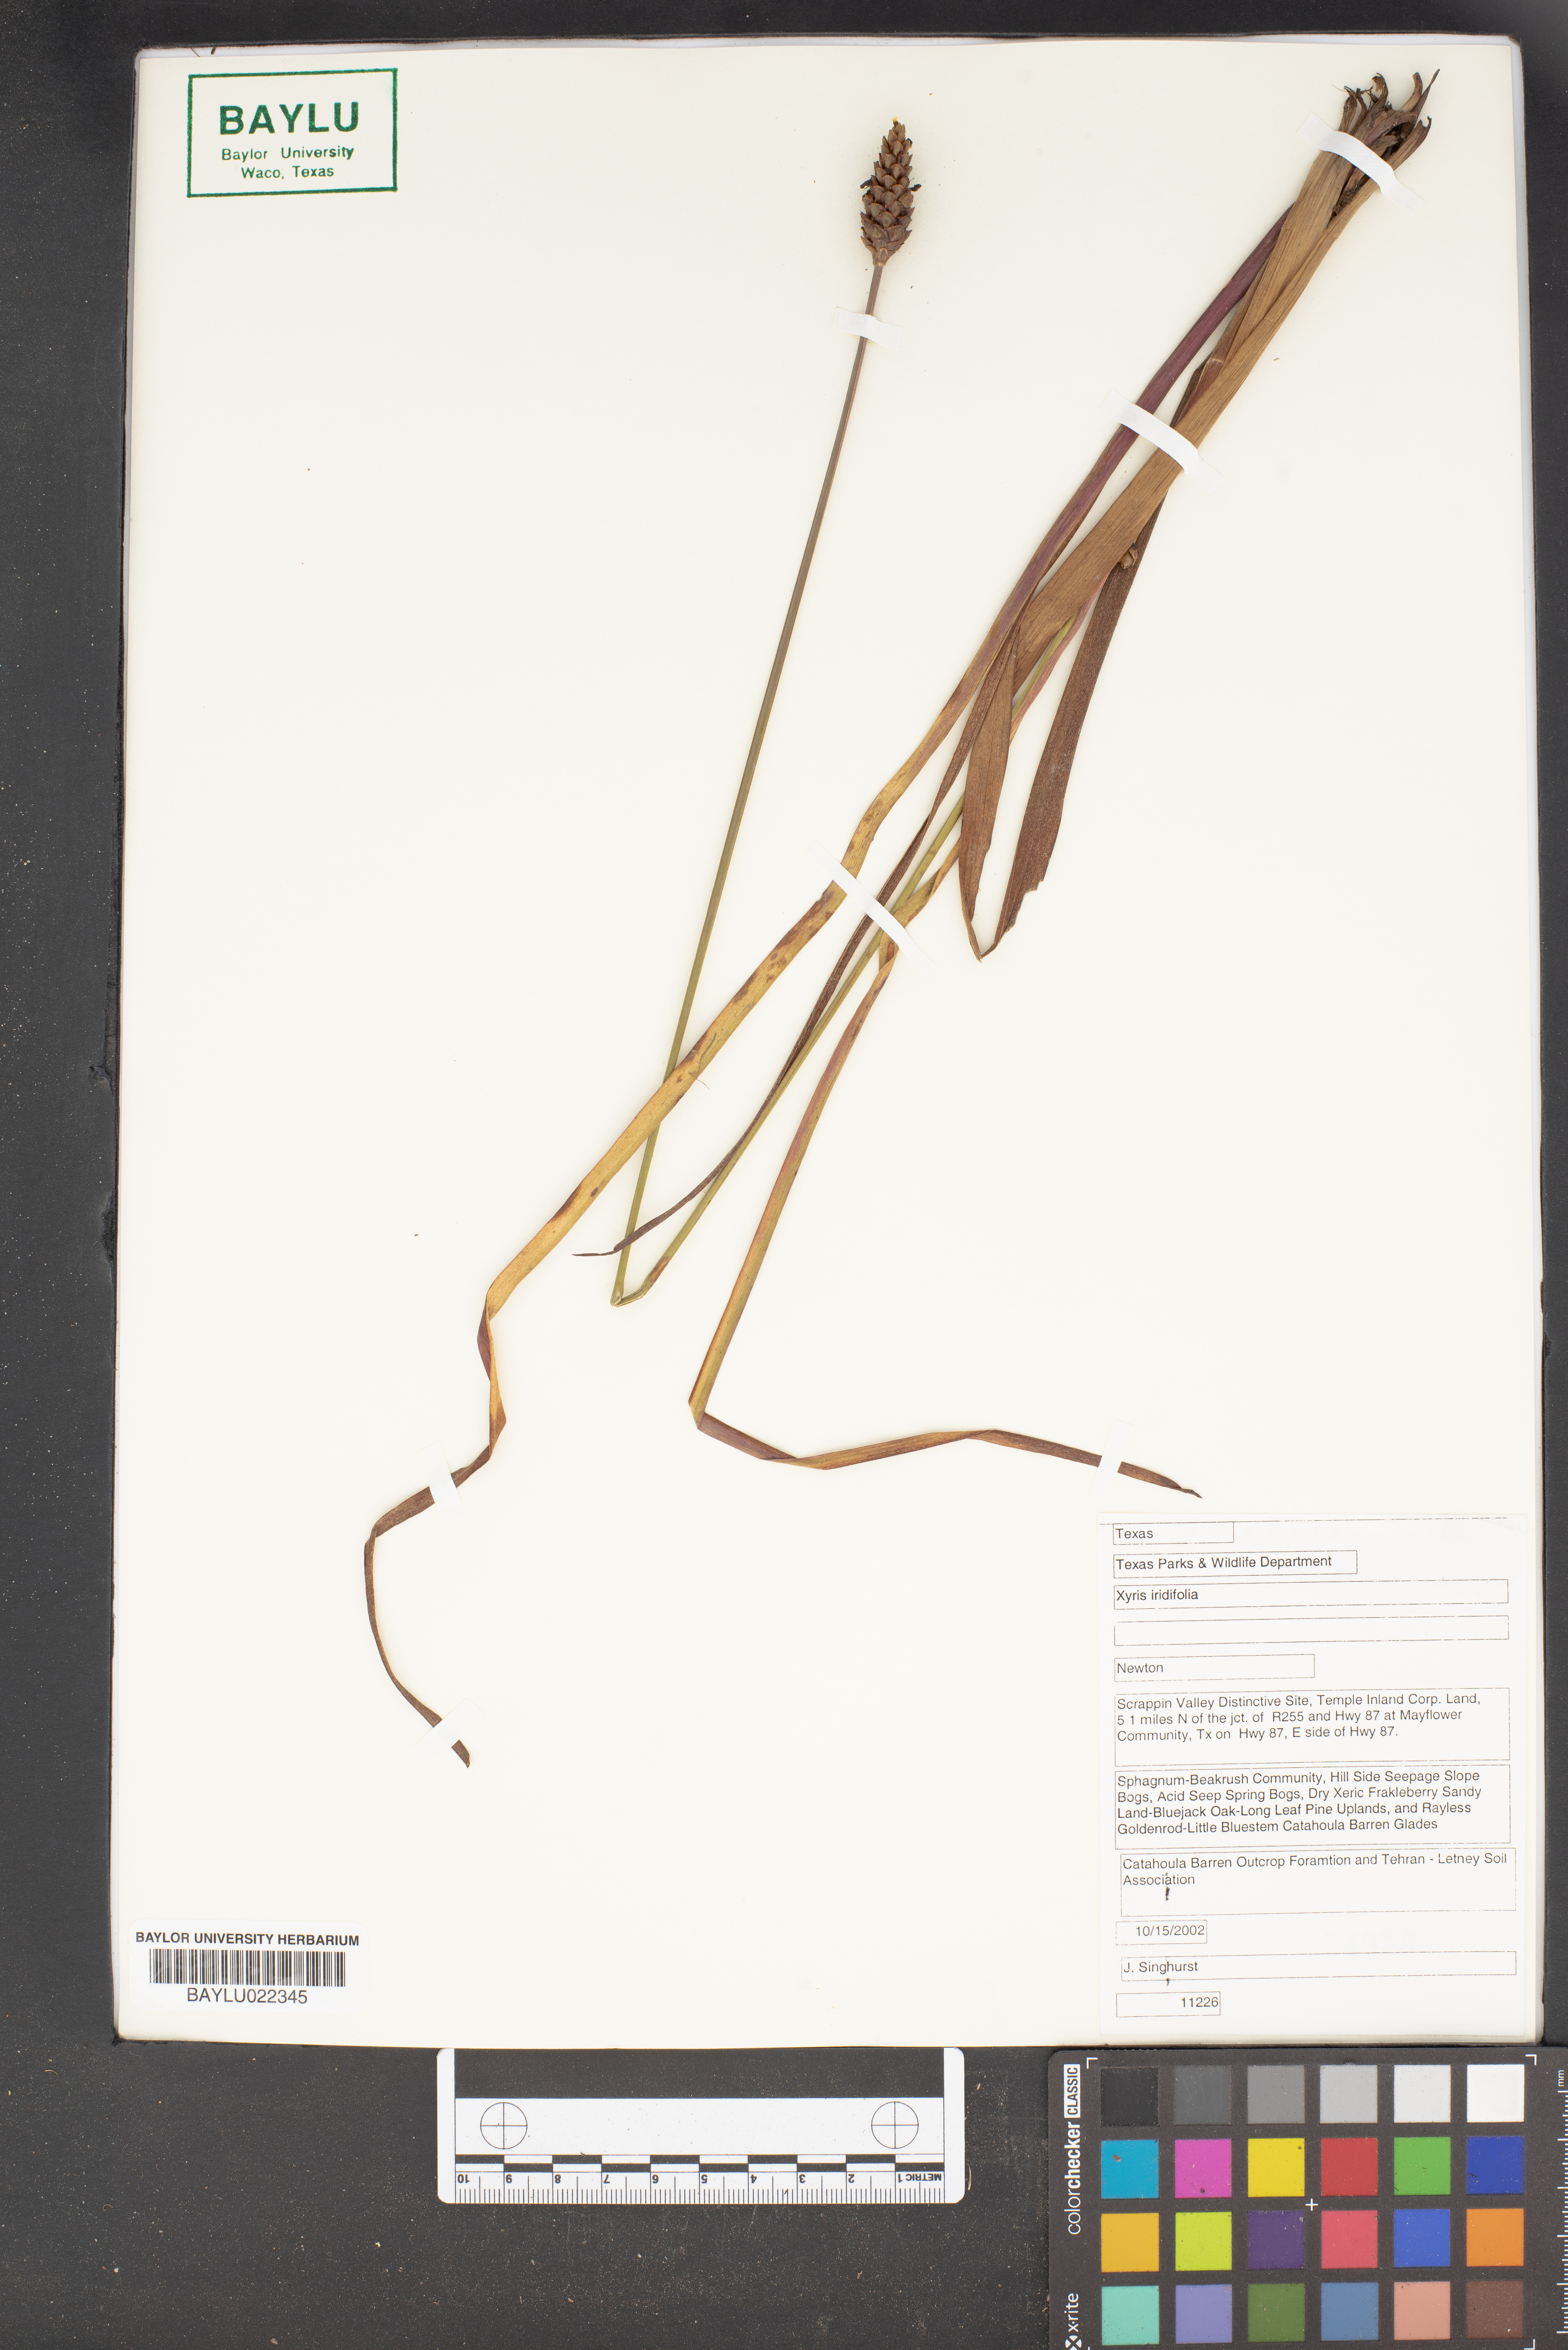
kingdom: Plantae
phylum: Tracheophyta
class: Liliopsida
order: Poales
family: Xyridaceae
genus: Xyris
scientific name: Xyris laxifolia
